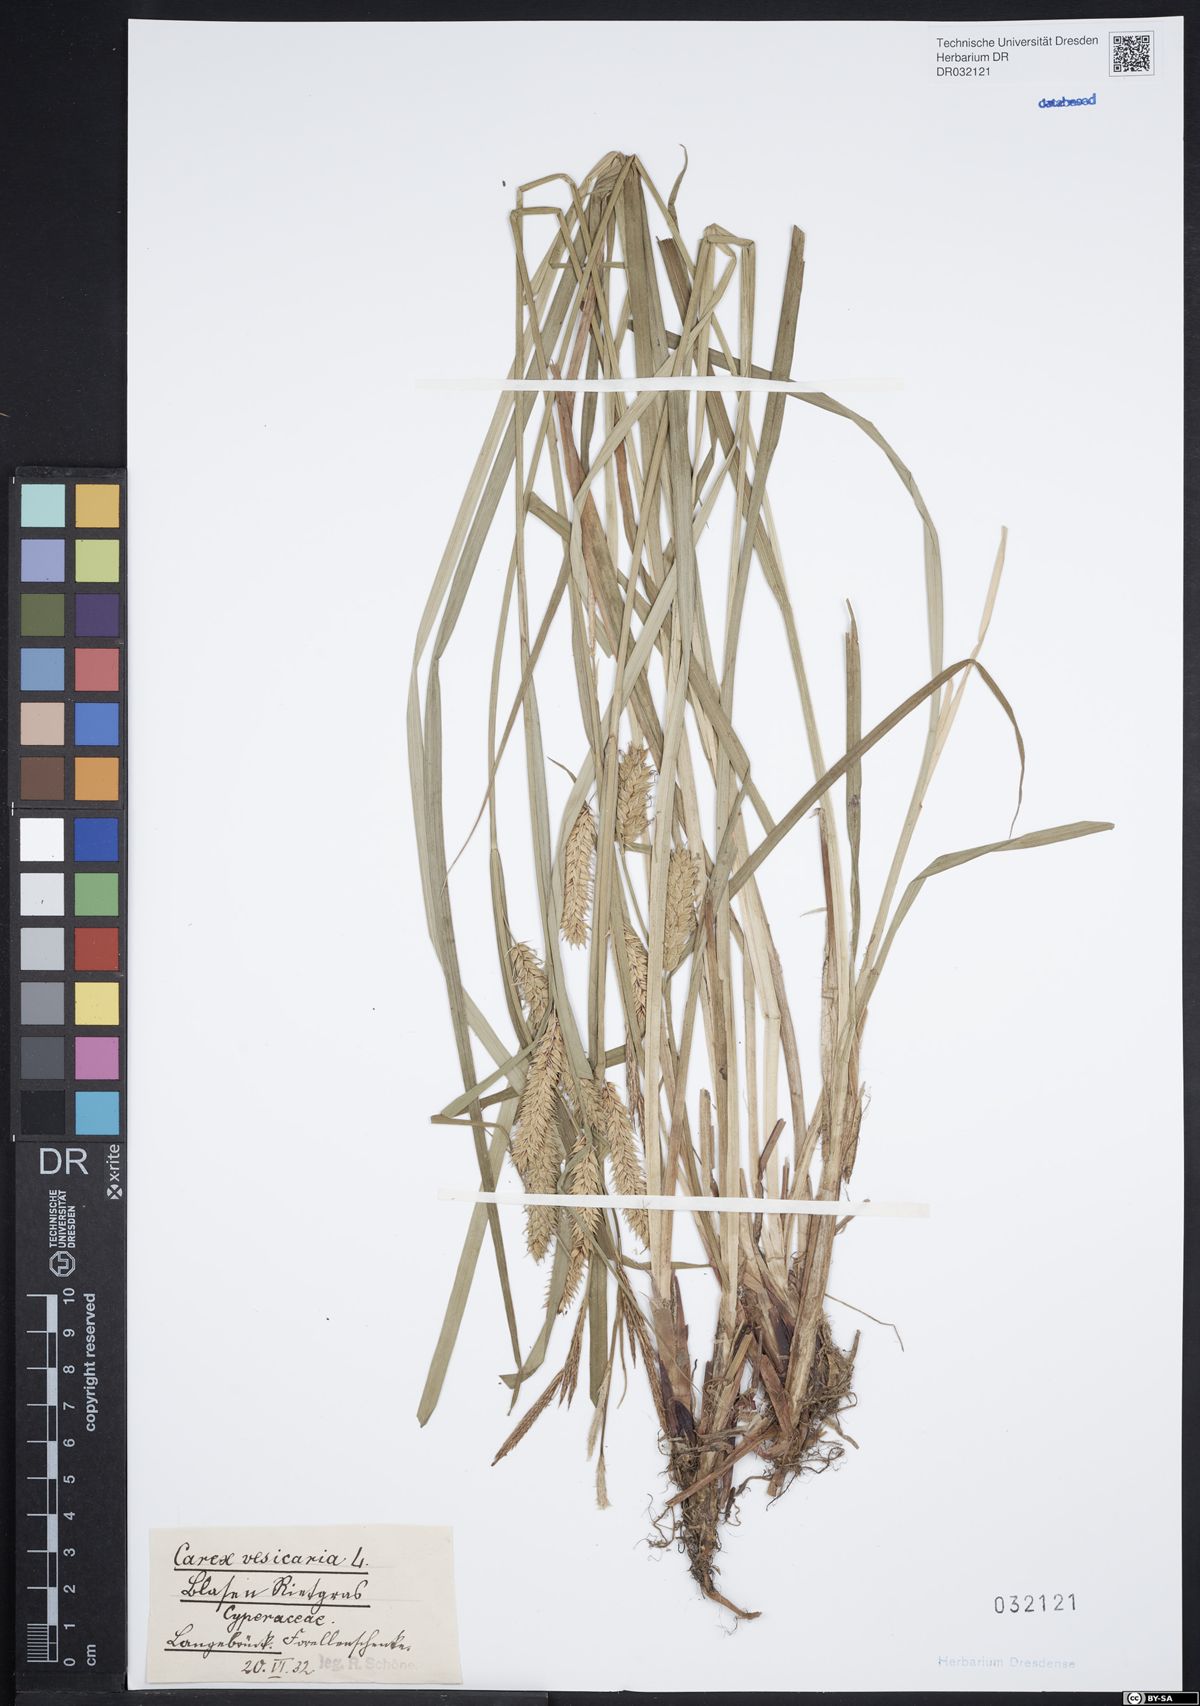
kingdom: Plantae
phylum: Tracheophyta
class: Liliopsida
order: Poales
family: Cyperaceae
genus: Carex
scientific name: Carex vesicaria
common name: Bladder-sedge
